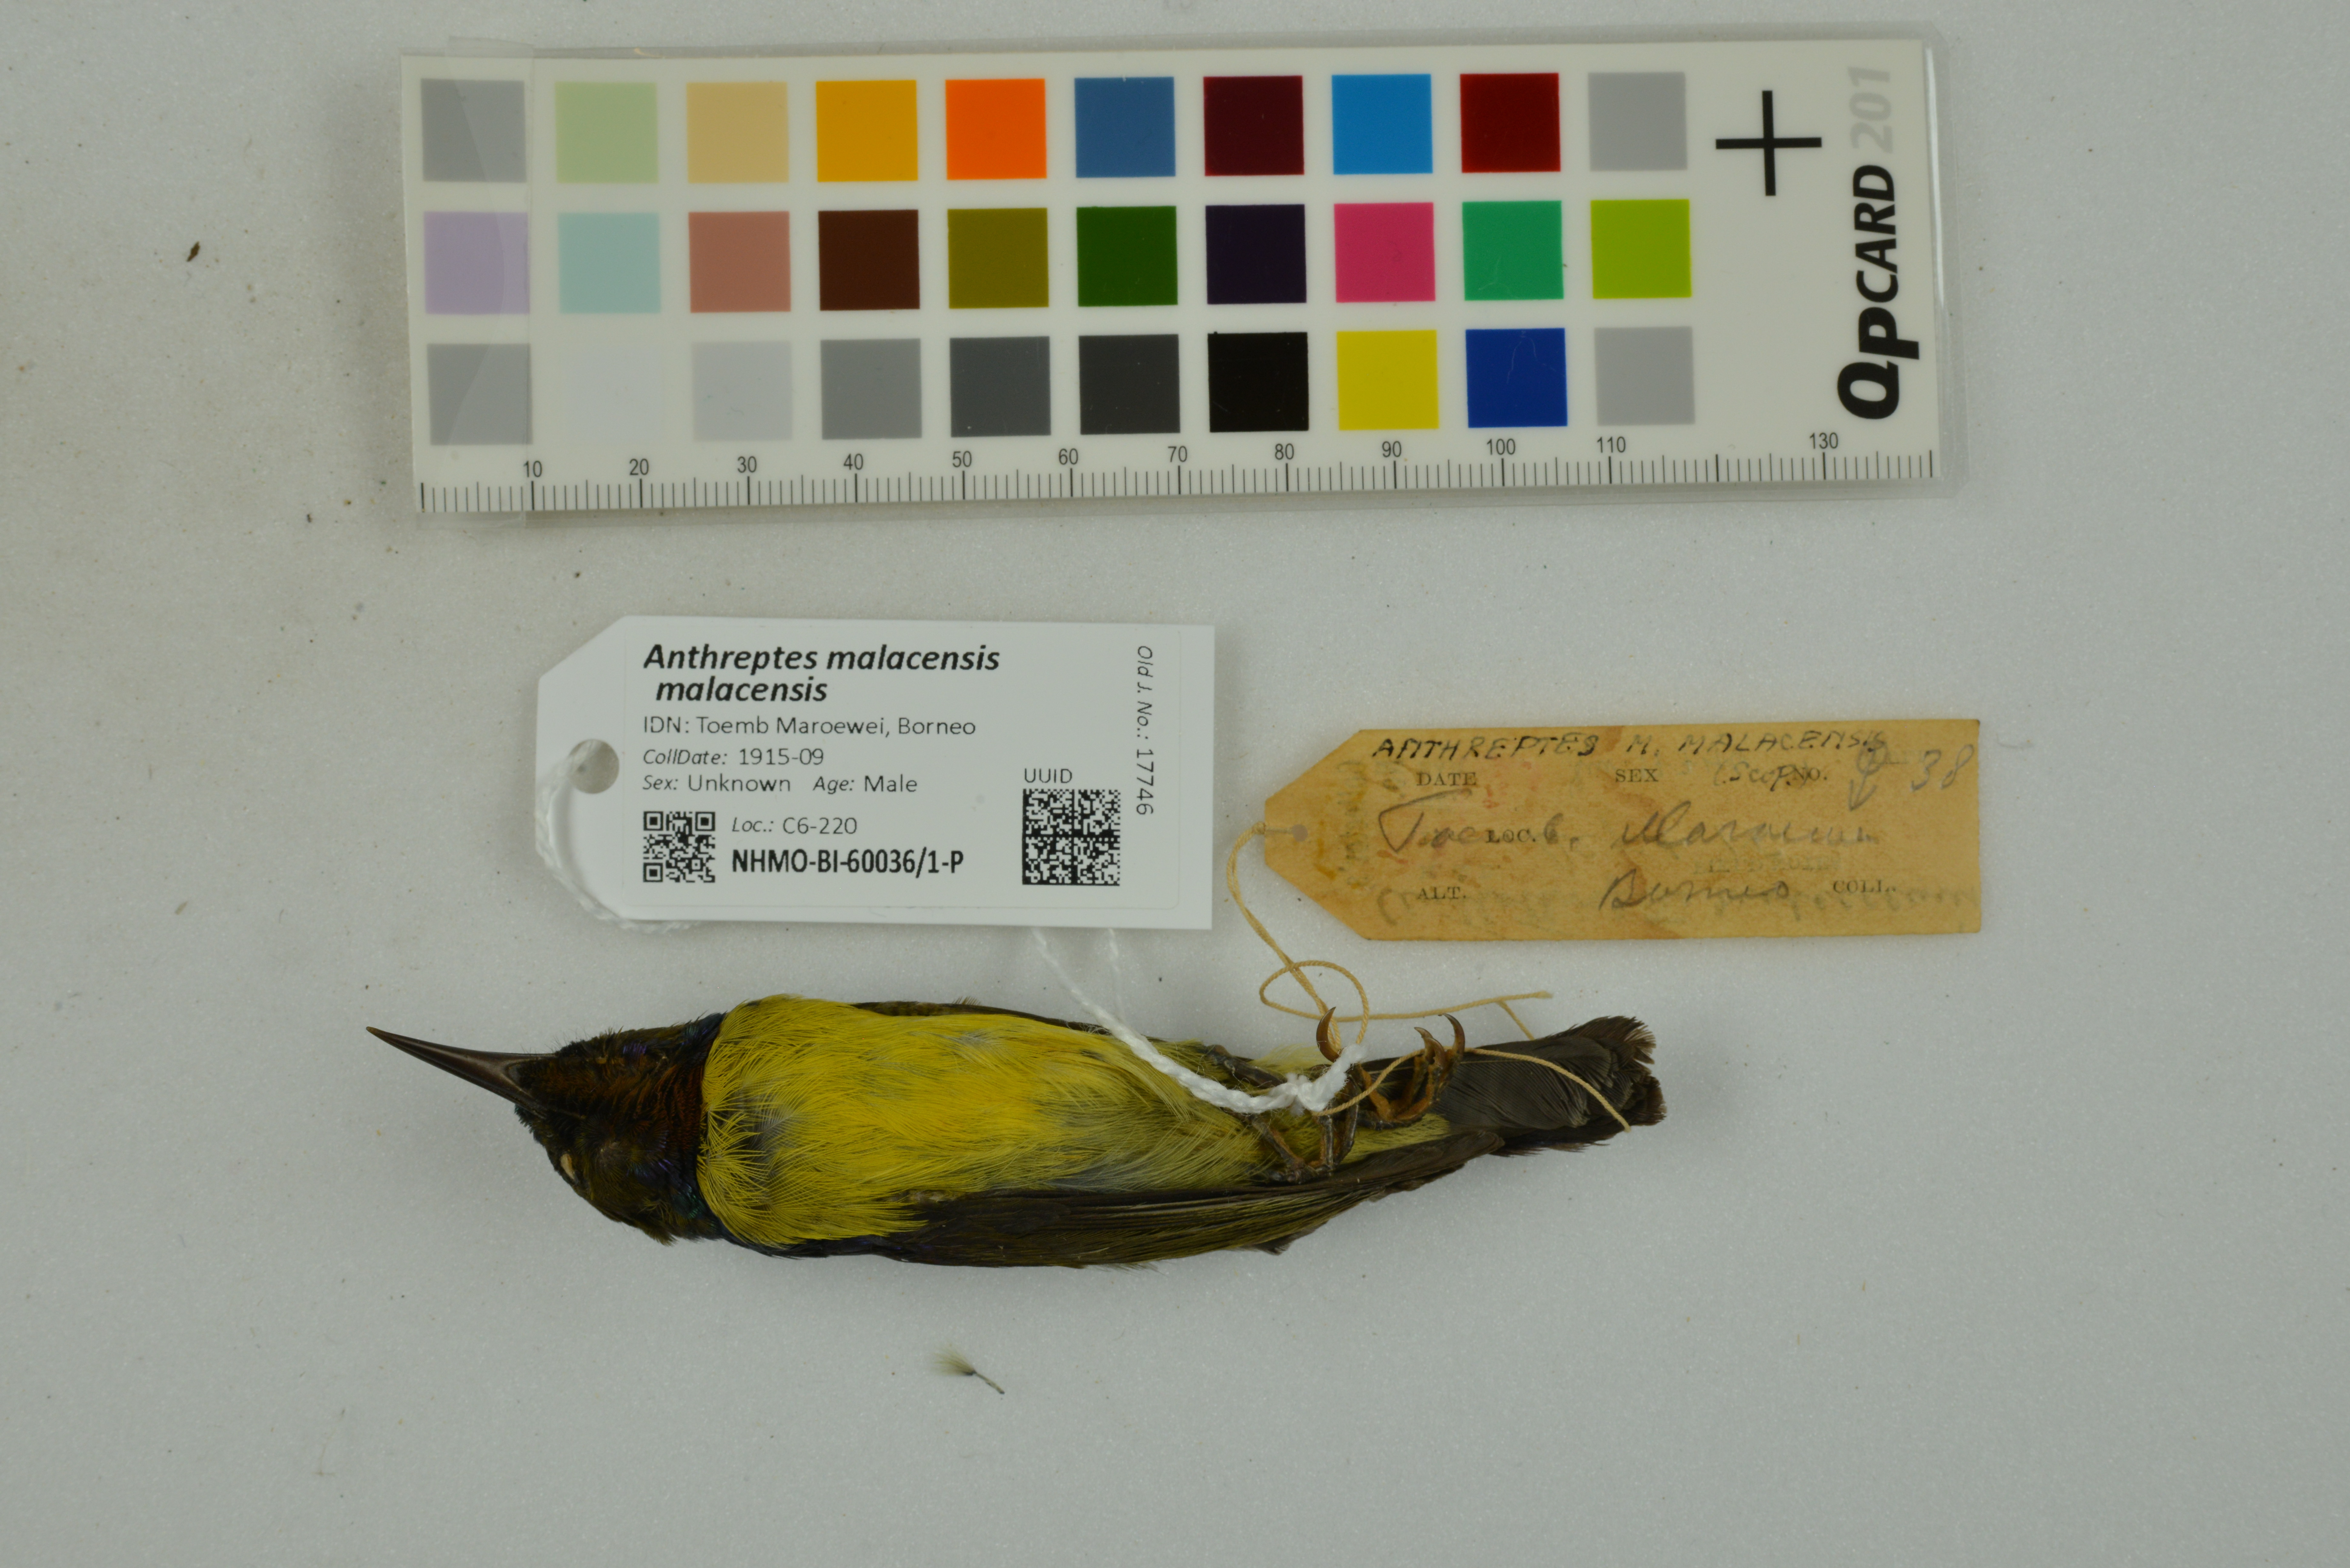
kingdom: Animalia
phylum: Chordata
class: Aves
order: Passeriformes
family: Nectariniidae
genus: Anthreptes
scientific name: Anthreptes malacensis
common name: Brown-throated sunbird
